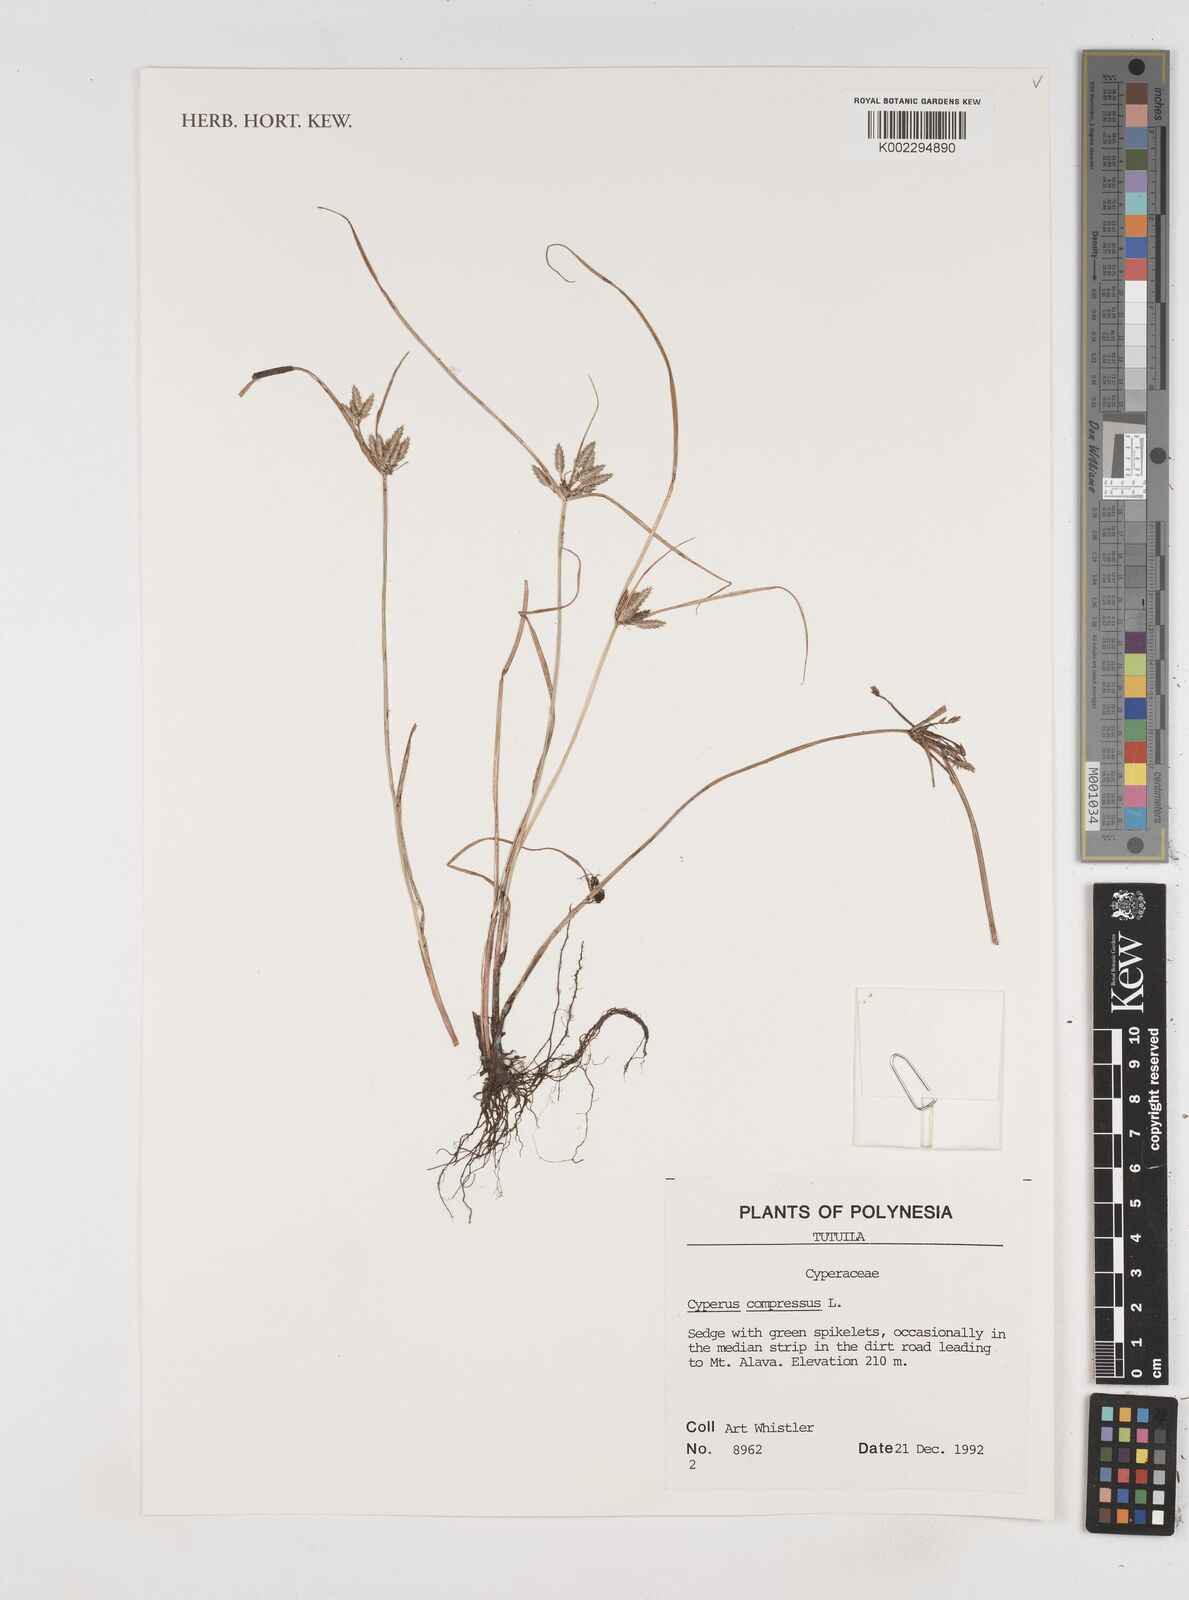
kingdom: Plantae
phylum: Tracheophyta
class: Liliopsida
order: Poales
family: Cyperaceae
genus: Cyperus
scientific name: Cyperus compressus
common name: Poorland flatsedge
